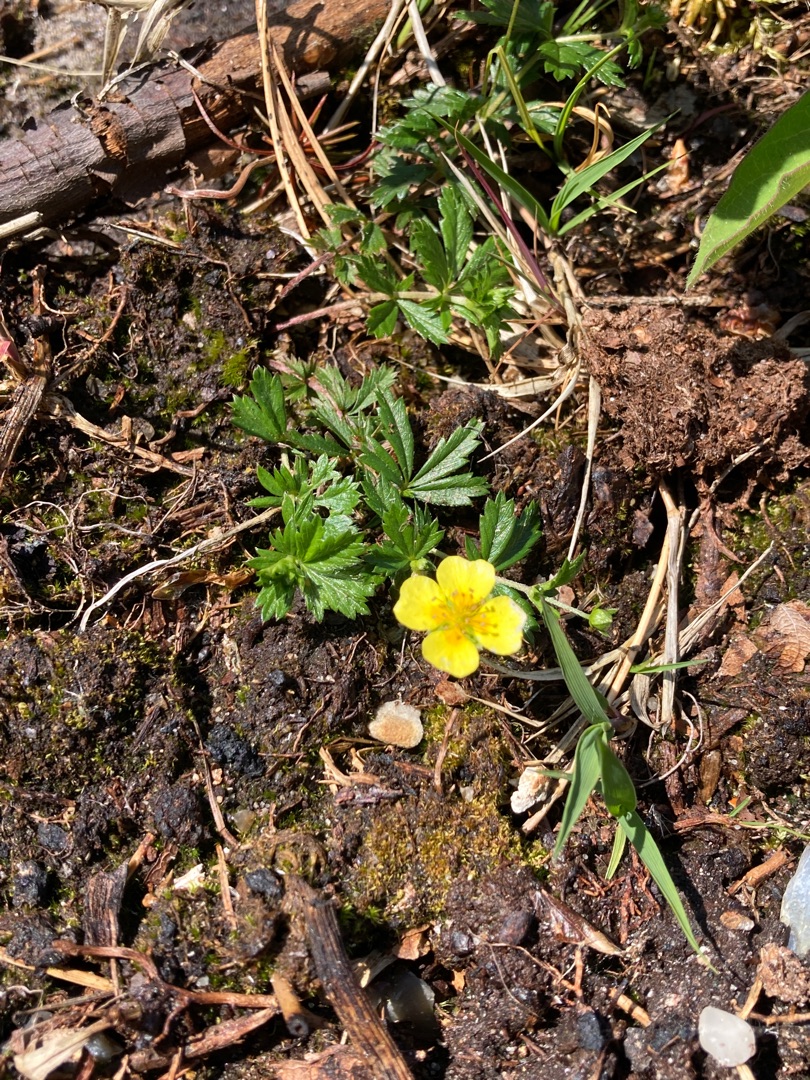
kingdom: Plantae
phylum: Tracheophyta
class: Magnoliopsida
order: Rosales
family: Rosaceae
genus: Potentilla
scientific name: Potentilla erecta
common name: Tormentil
